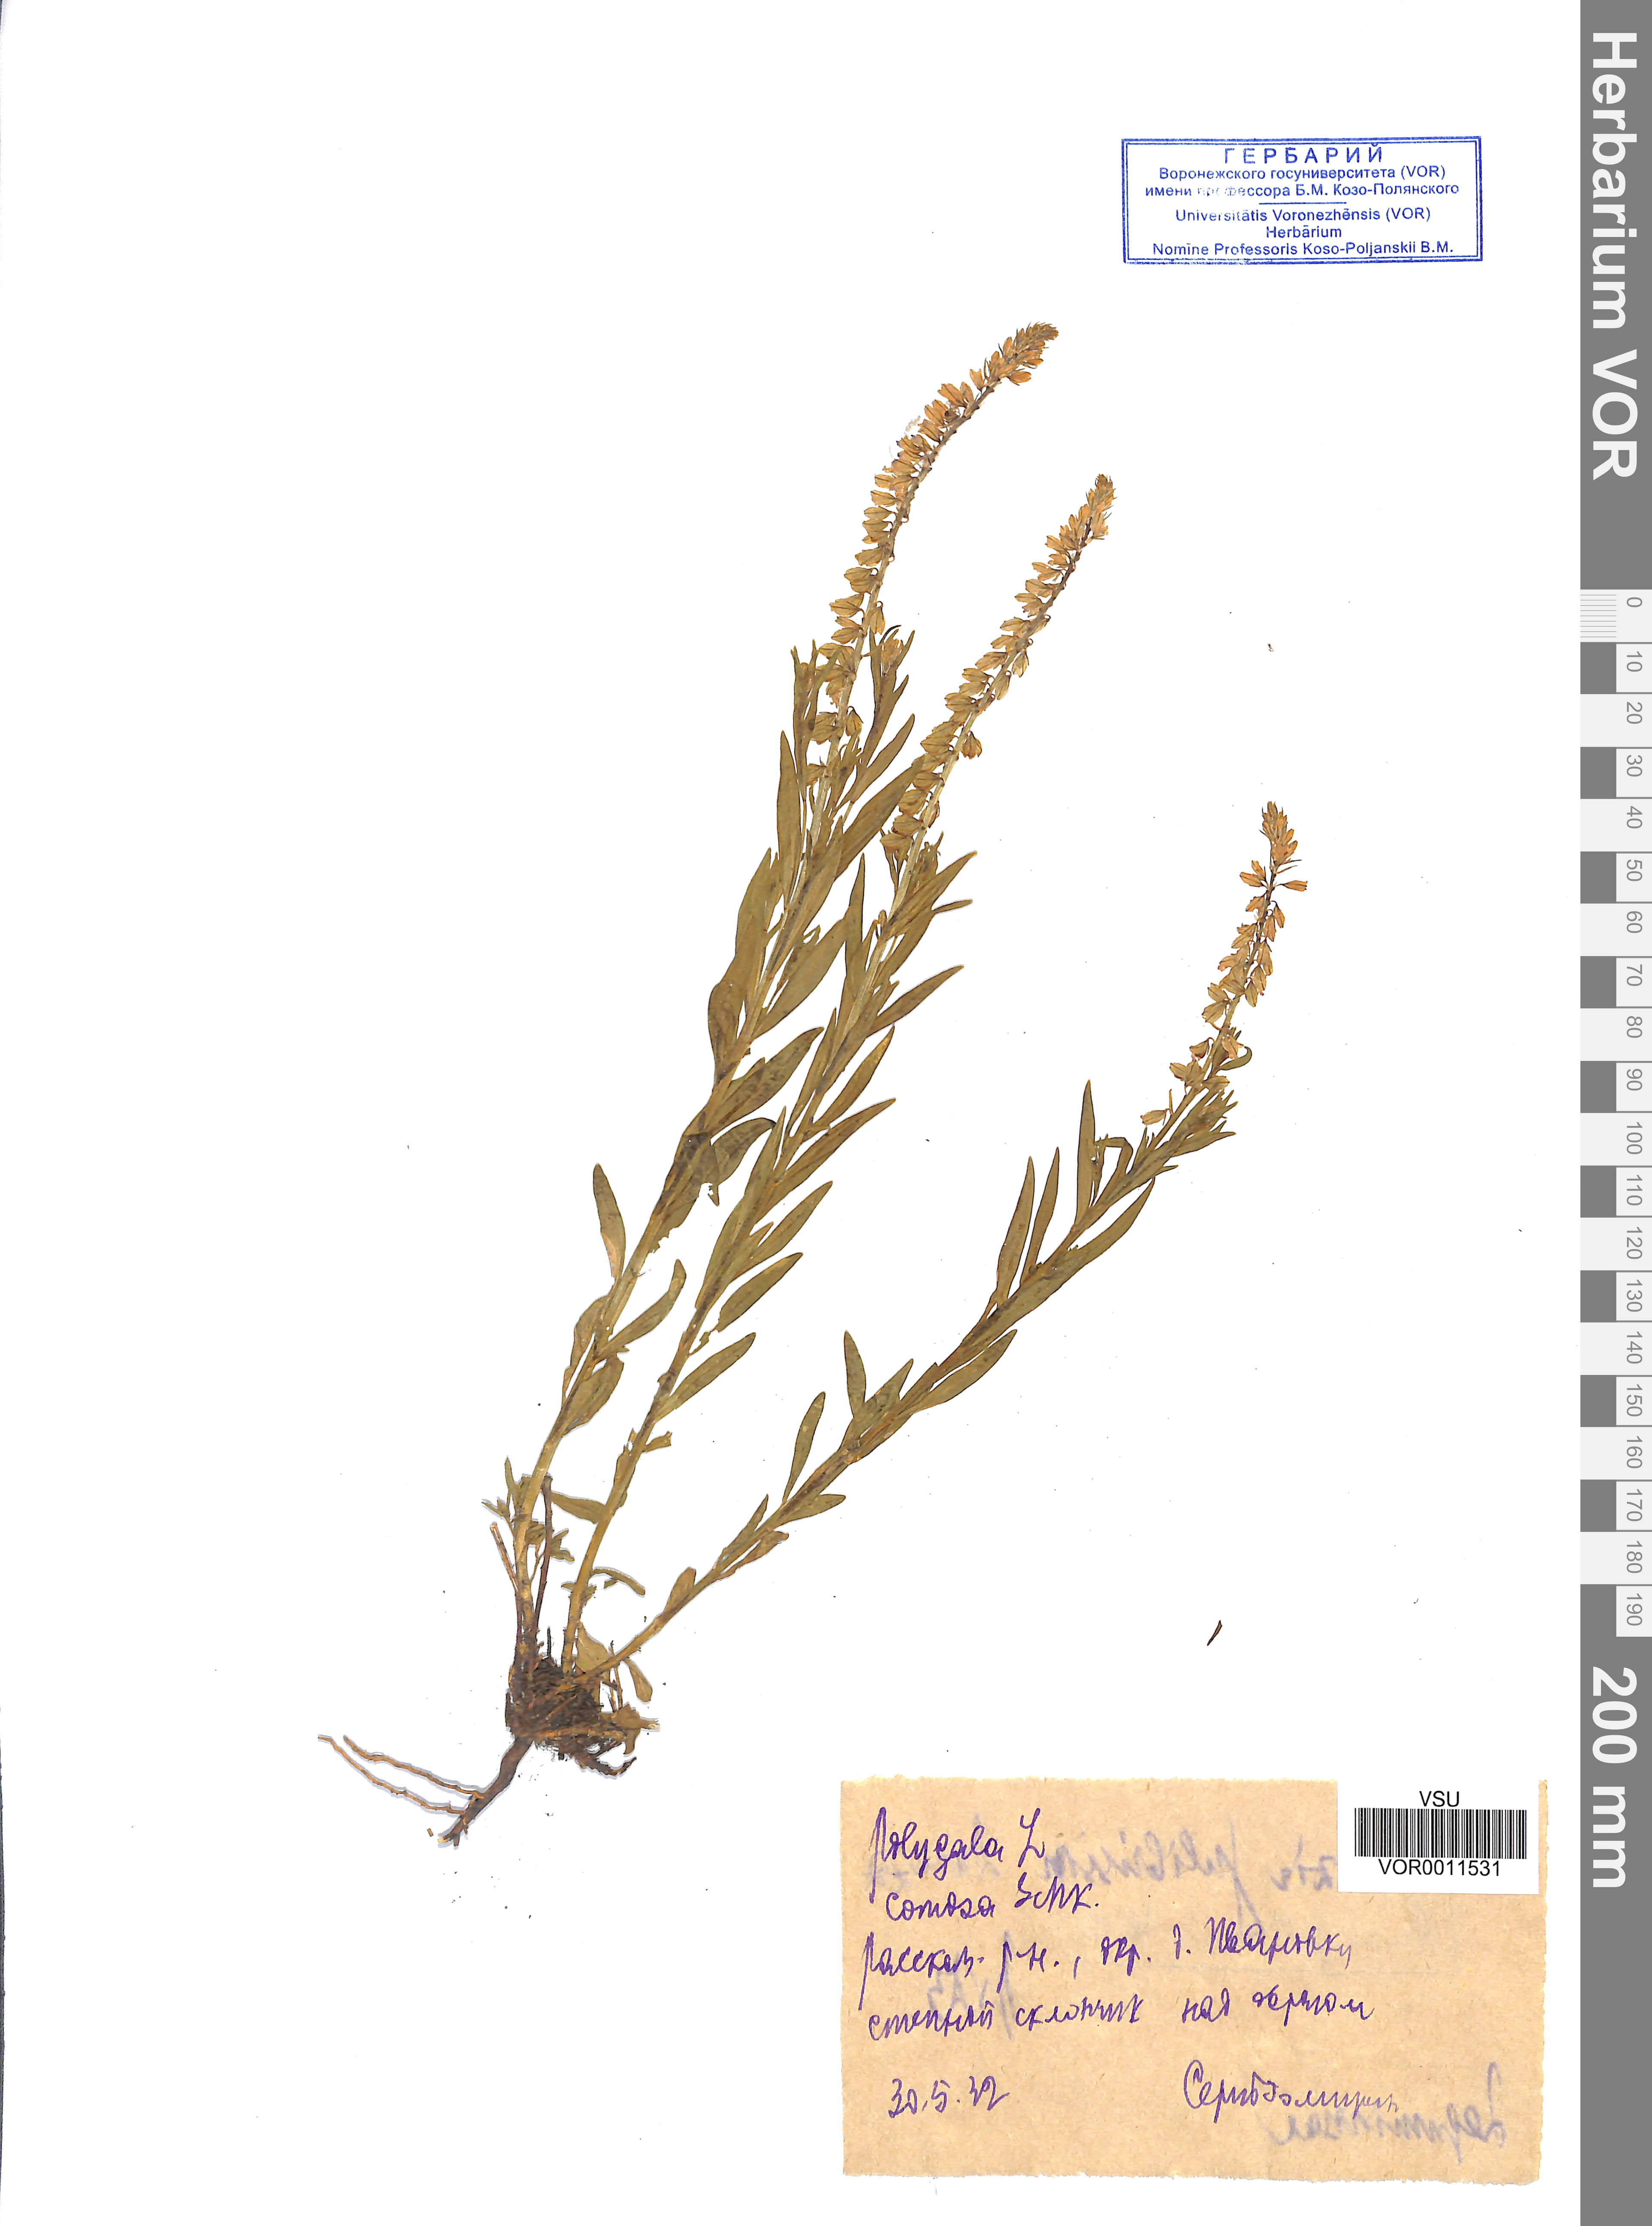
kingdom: Plantae
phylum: Tracheophyta
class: Magnoliopsida
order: Fabales
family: Polygalaceae
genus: Polygala
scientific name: Polygala comosa
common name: Tufted milkwort
